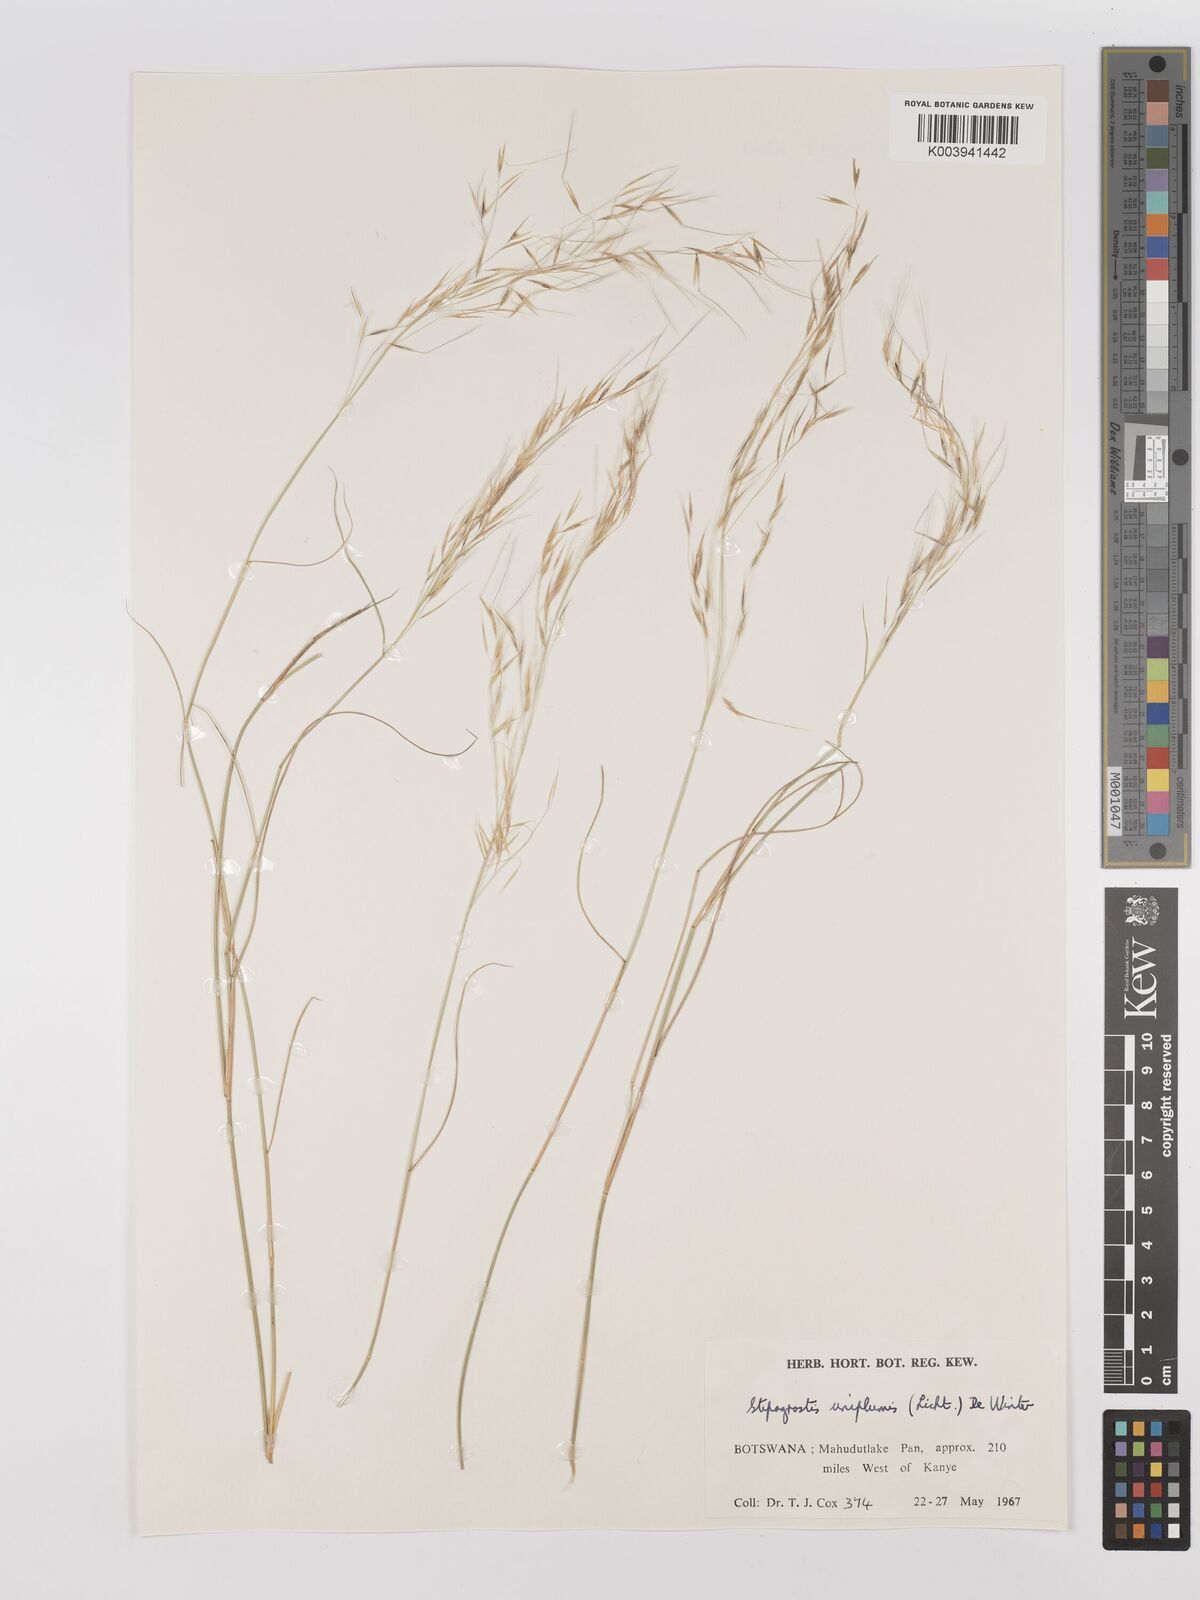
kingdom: Plantae
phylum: Tracheophyta
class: Liliopsida
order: Poales
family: Poaceae
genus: Stipagrostis
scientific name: Stipagrostis uniplumis
